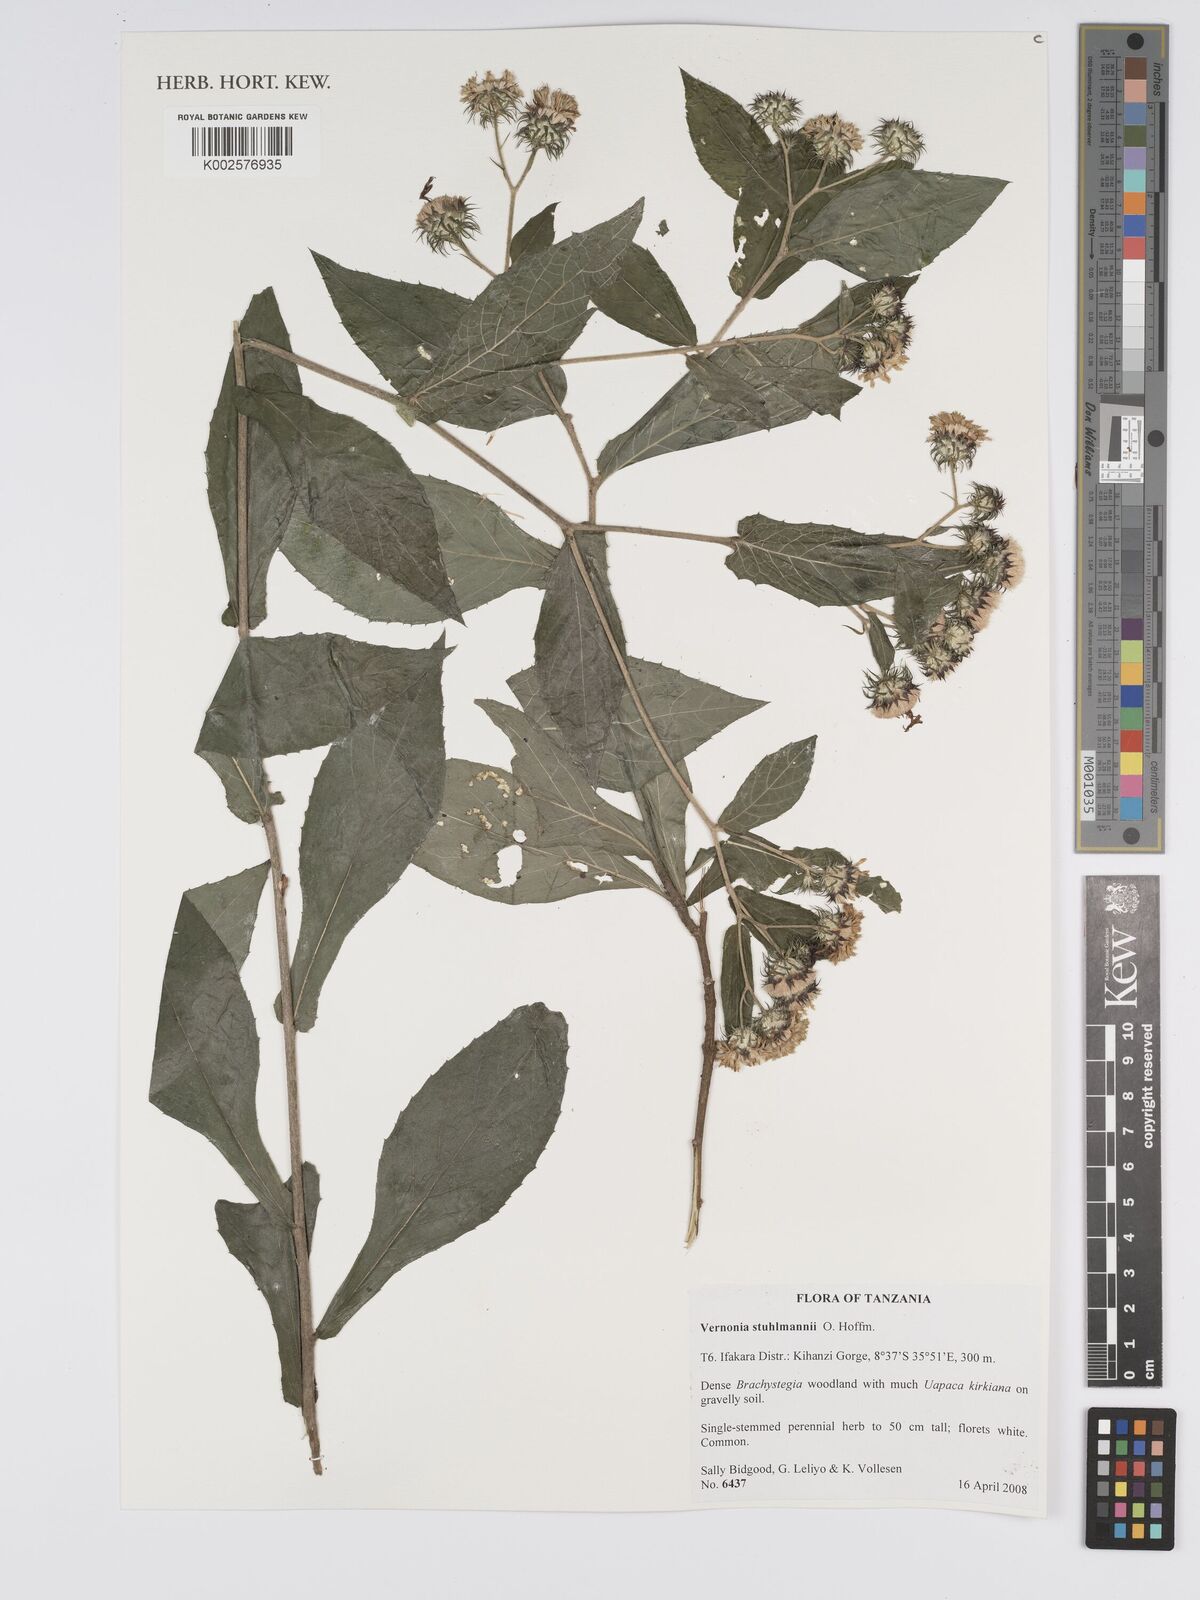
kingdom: Plantae
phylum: Tracheophyta
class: Magnoliopsida
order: Asterales
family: Asteraceae
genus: Vernonia
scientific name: Vernonia stuhlmannii
